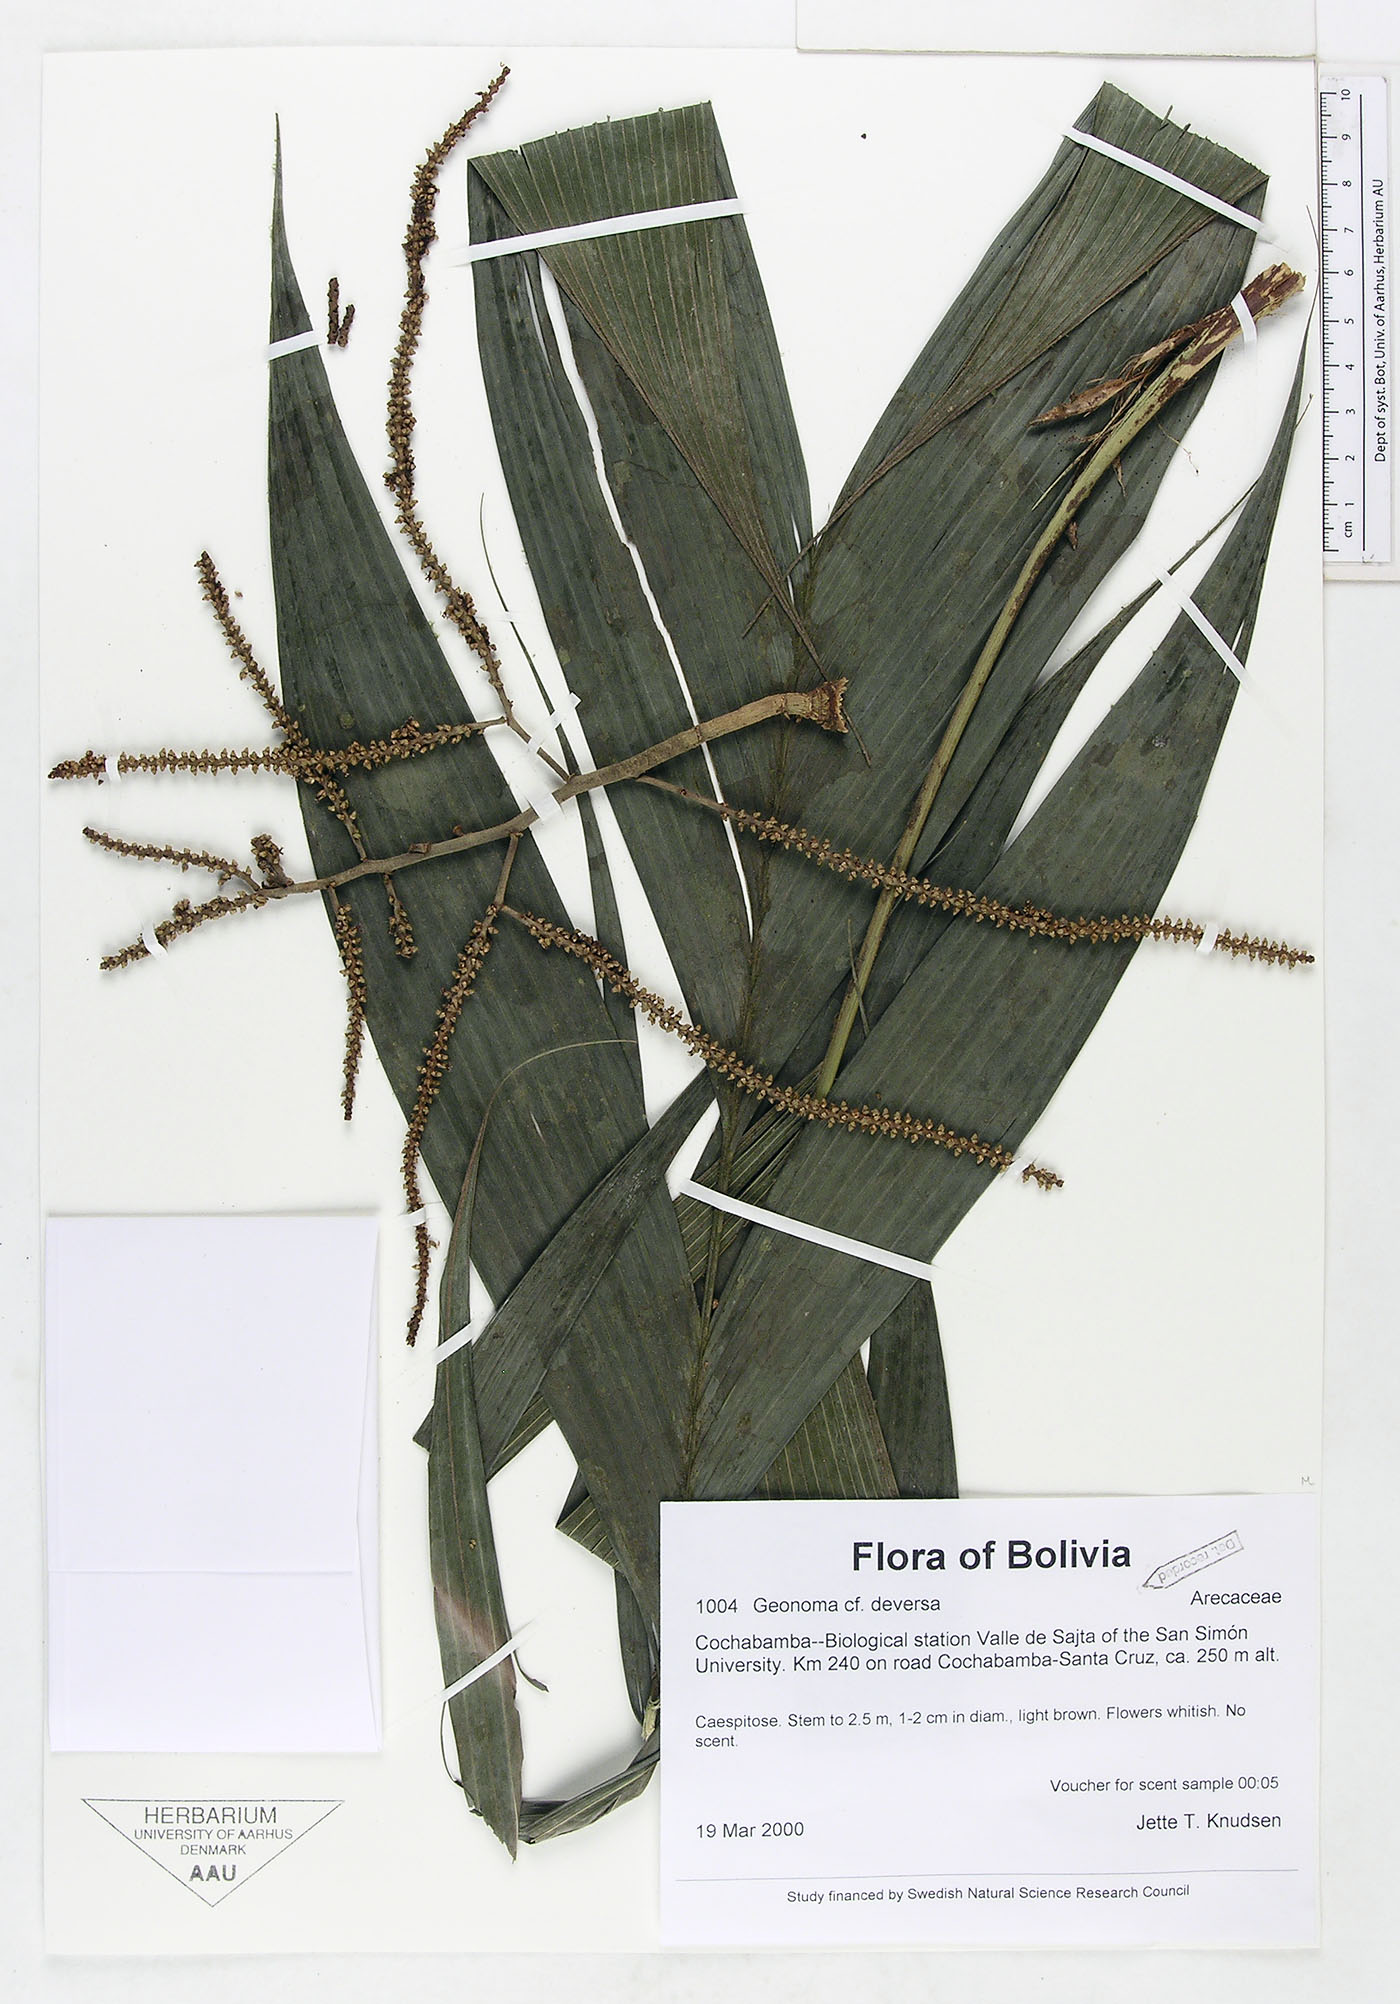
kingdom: Plantae
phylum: Tracheophyta
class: Liliopsida
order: Arecales
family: Arecaceae
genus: Geonoma
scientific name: Geonoma deversa
